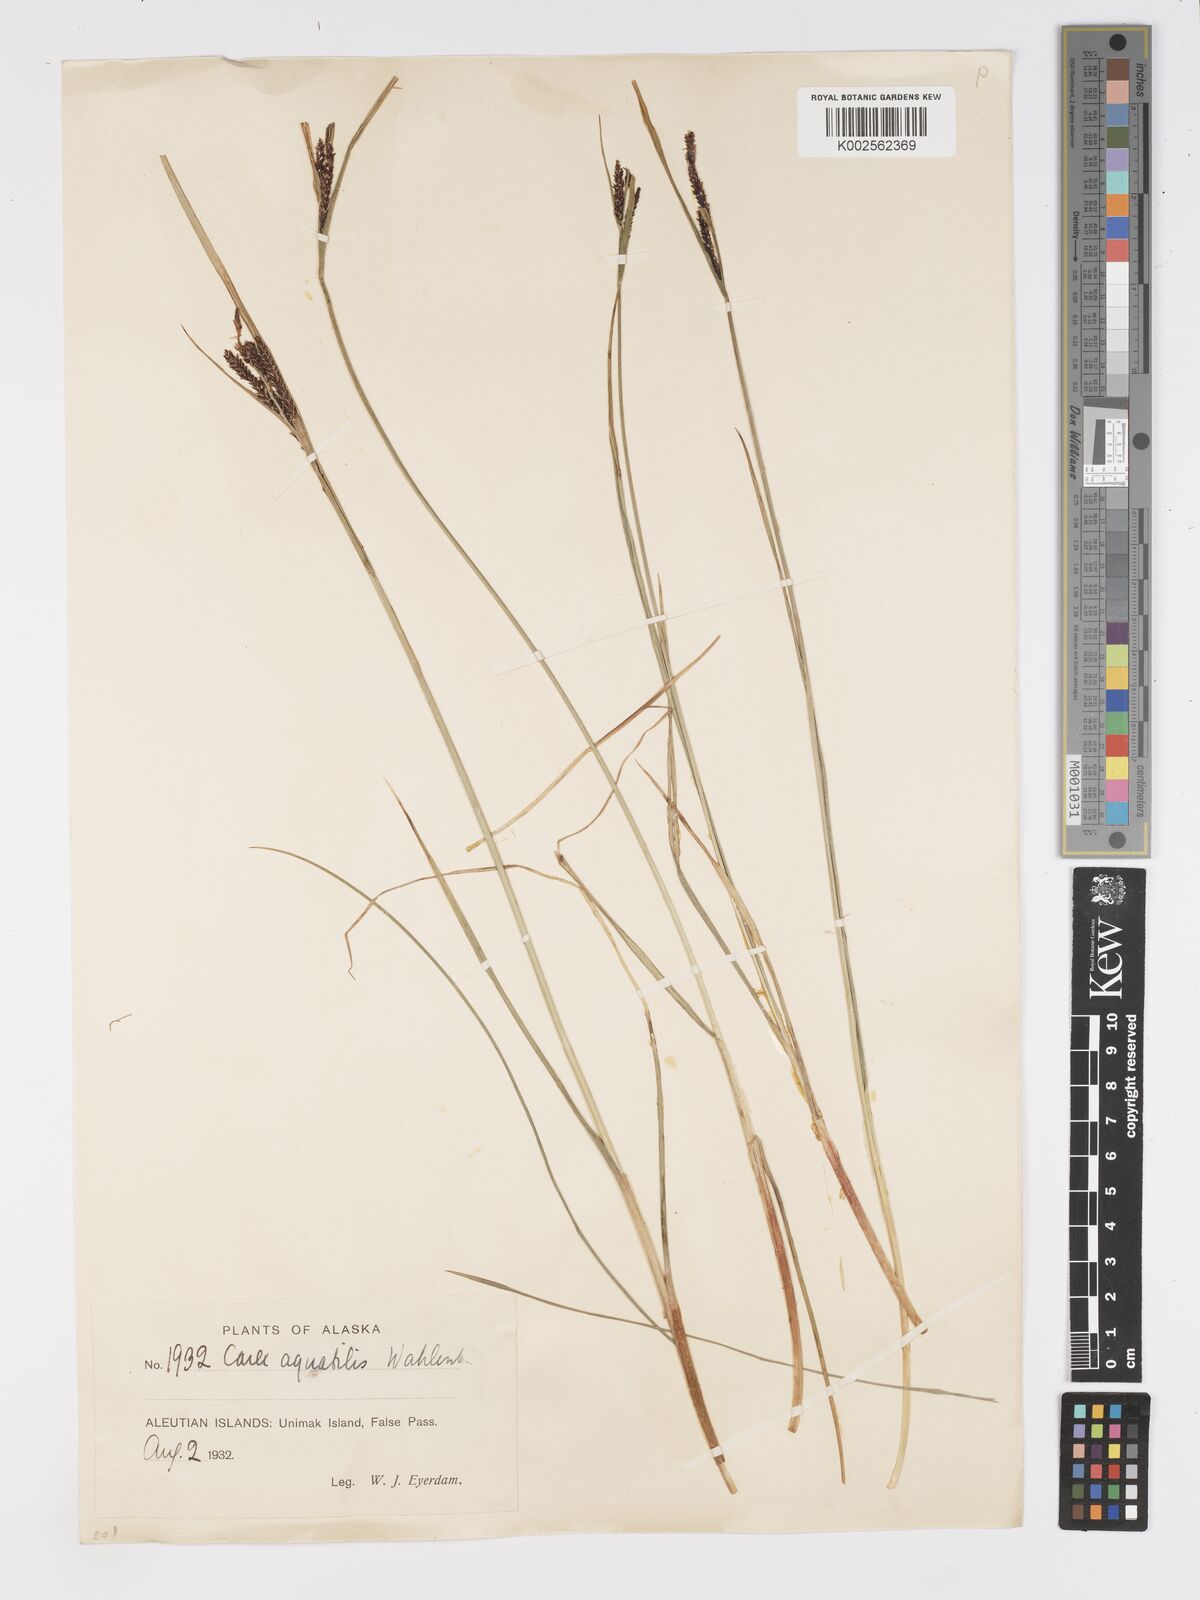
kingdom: Plantae
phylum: Tracheophyta
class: Liliopsida
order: Poales
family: Cyperaceae
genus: Carex
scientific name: Carex aquatilis
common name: Water sedge
